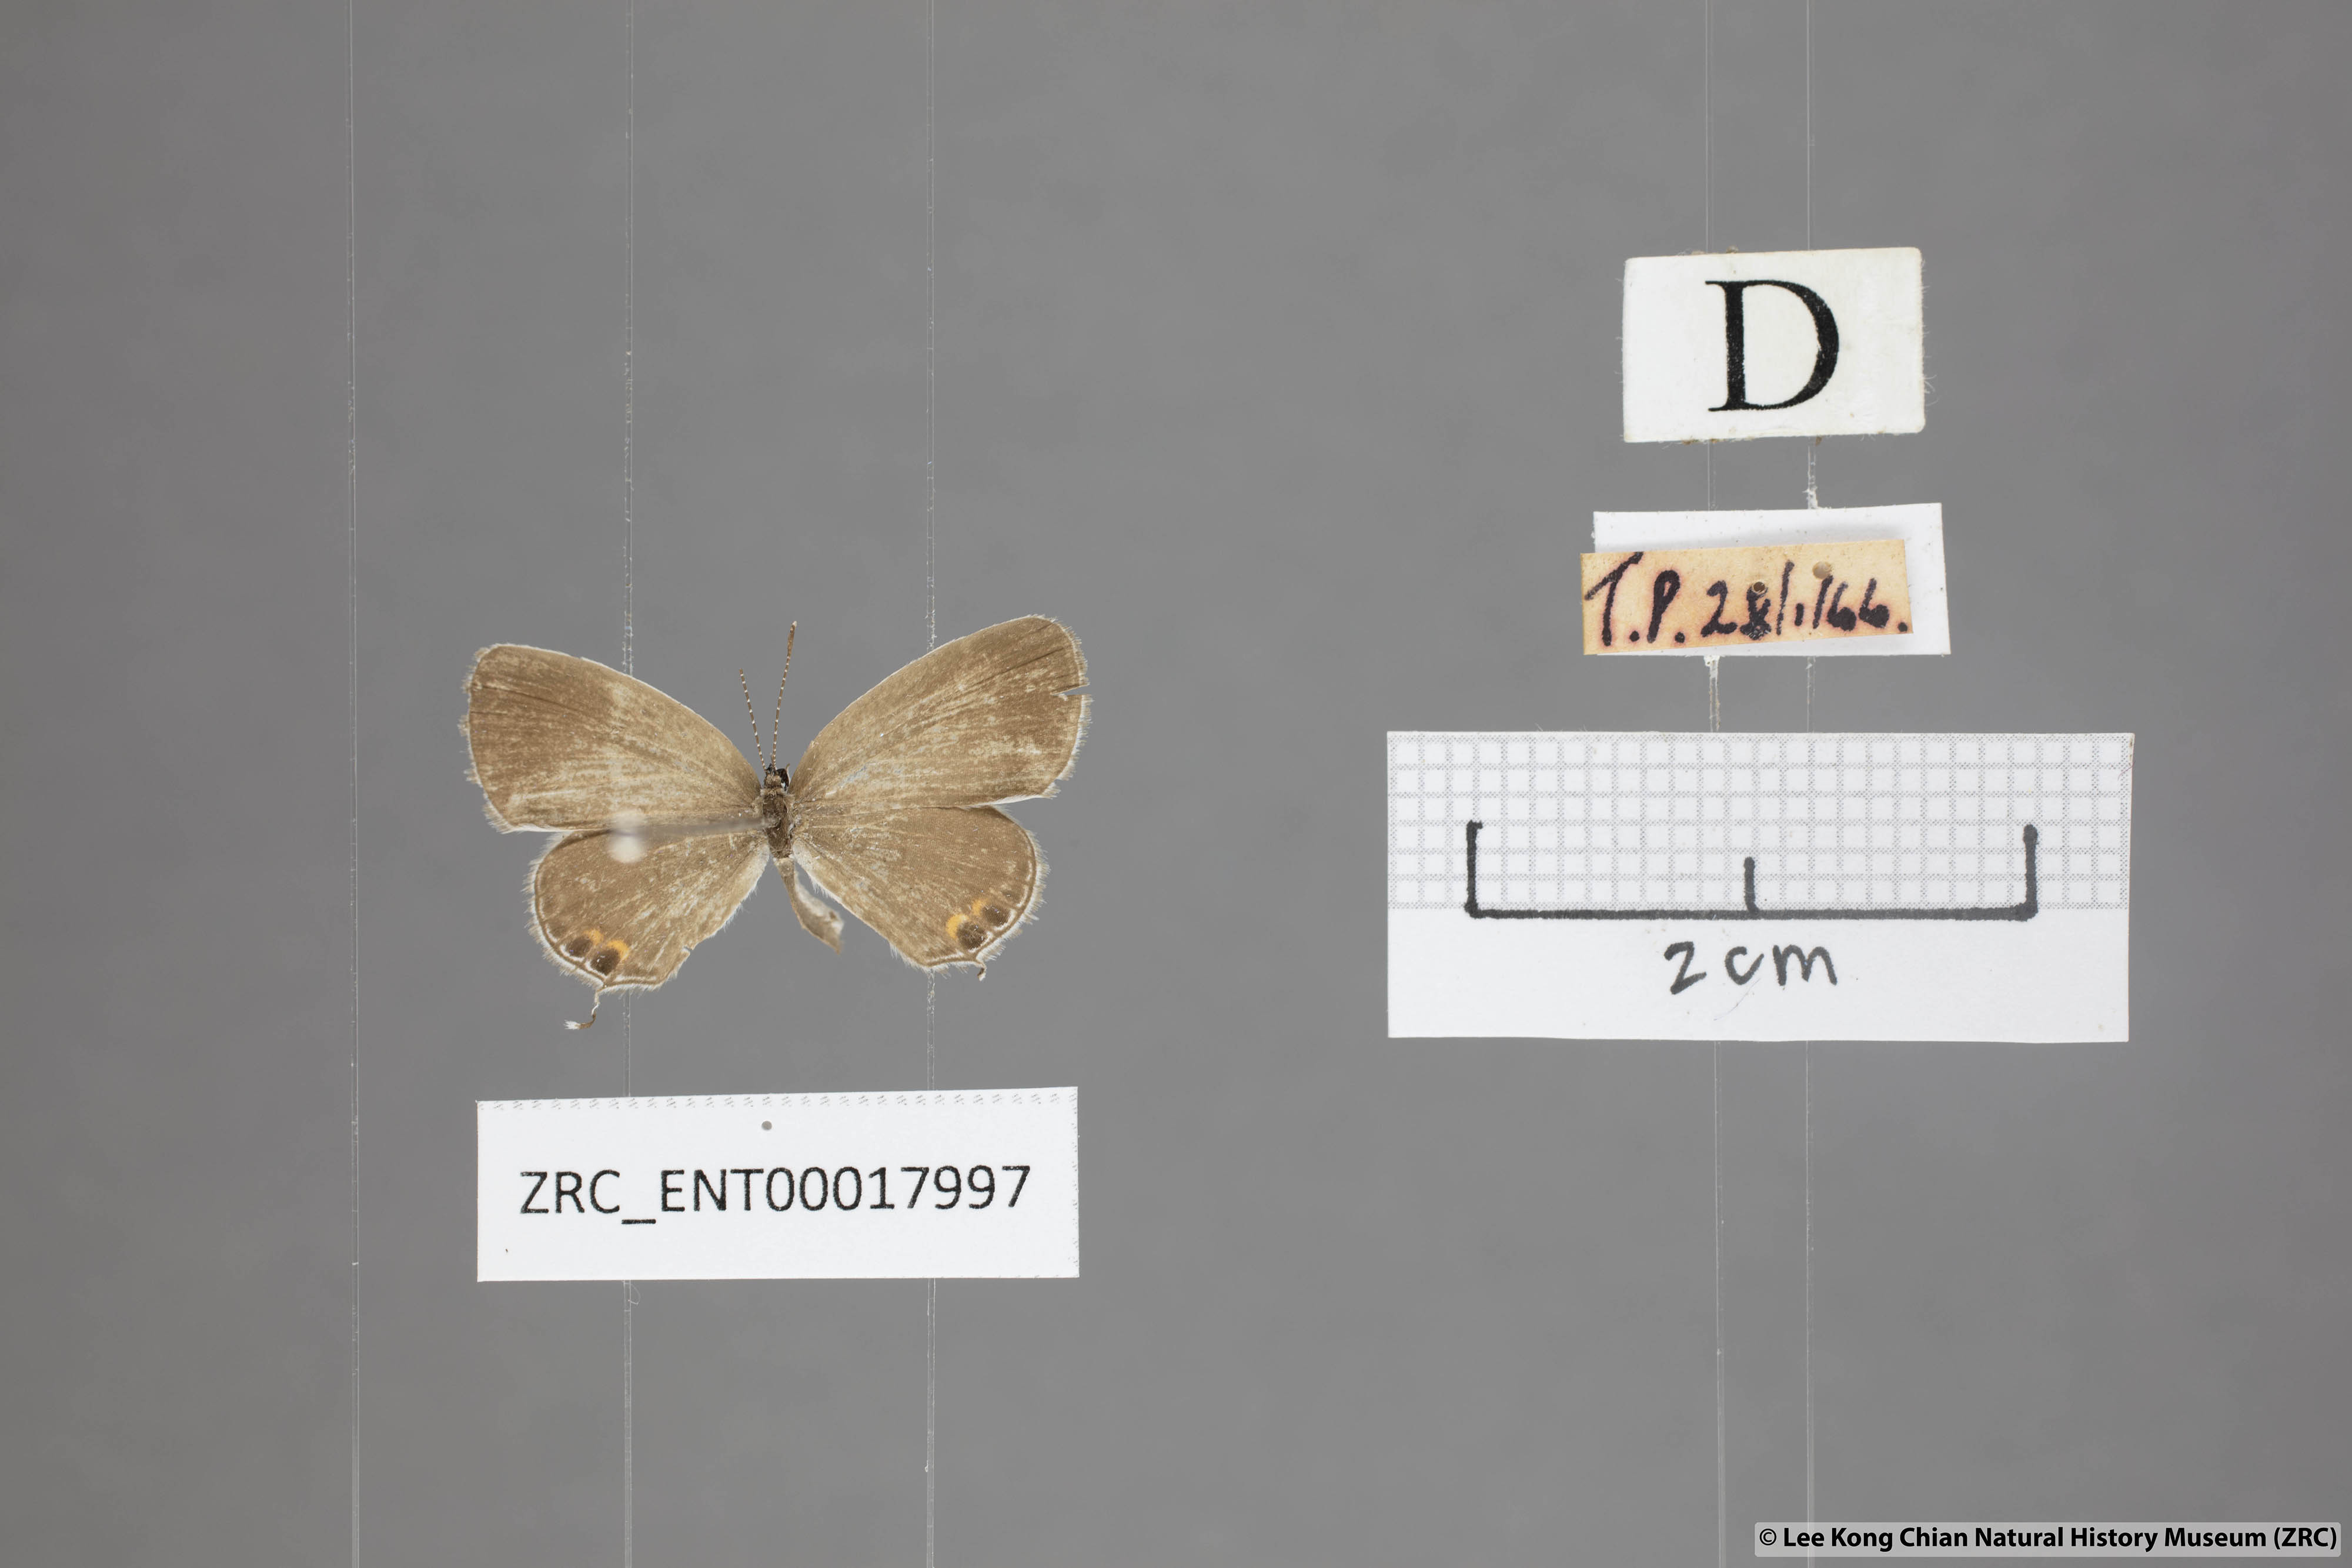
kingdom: Animalia
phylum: Arthropoda
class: Insecta
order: Lepidoptera
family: Lycaenidae
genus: Everes
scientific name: Everes lacturnus
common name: Orange-tipped pea-blue
